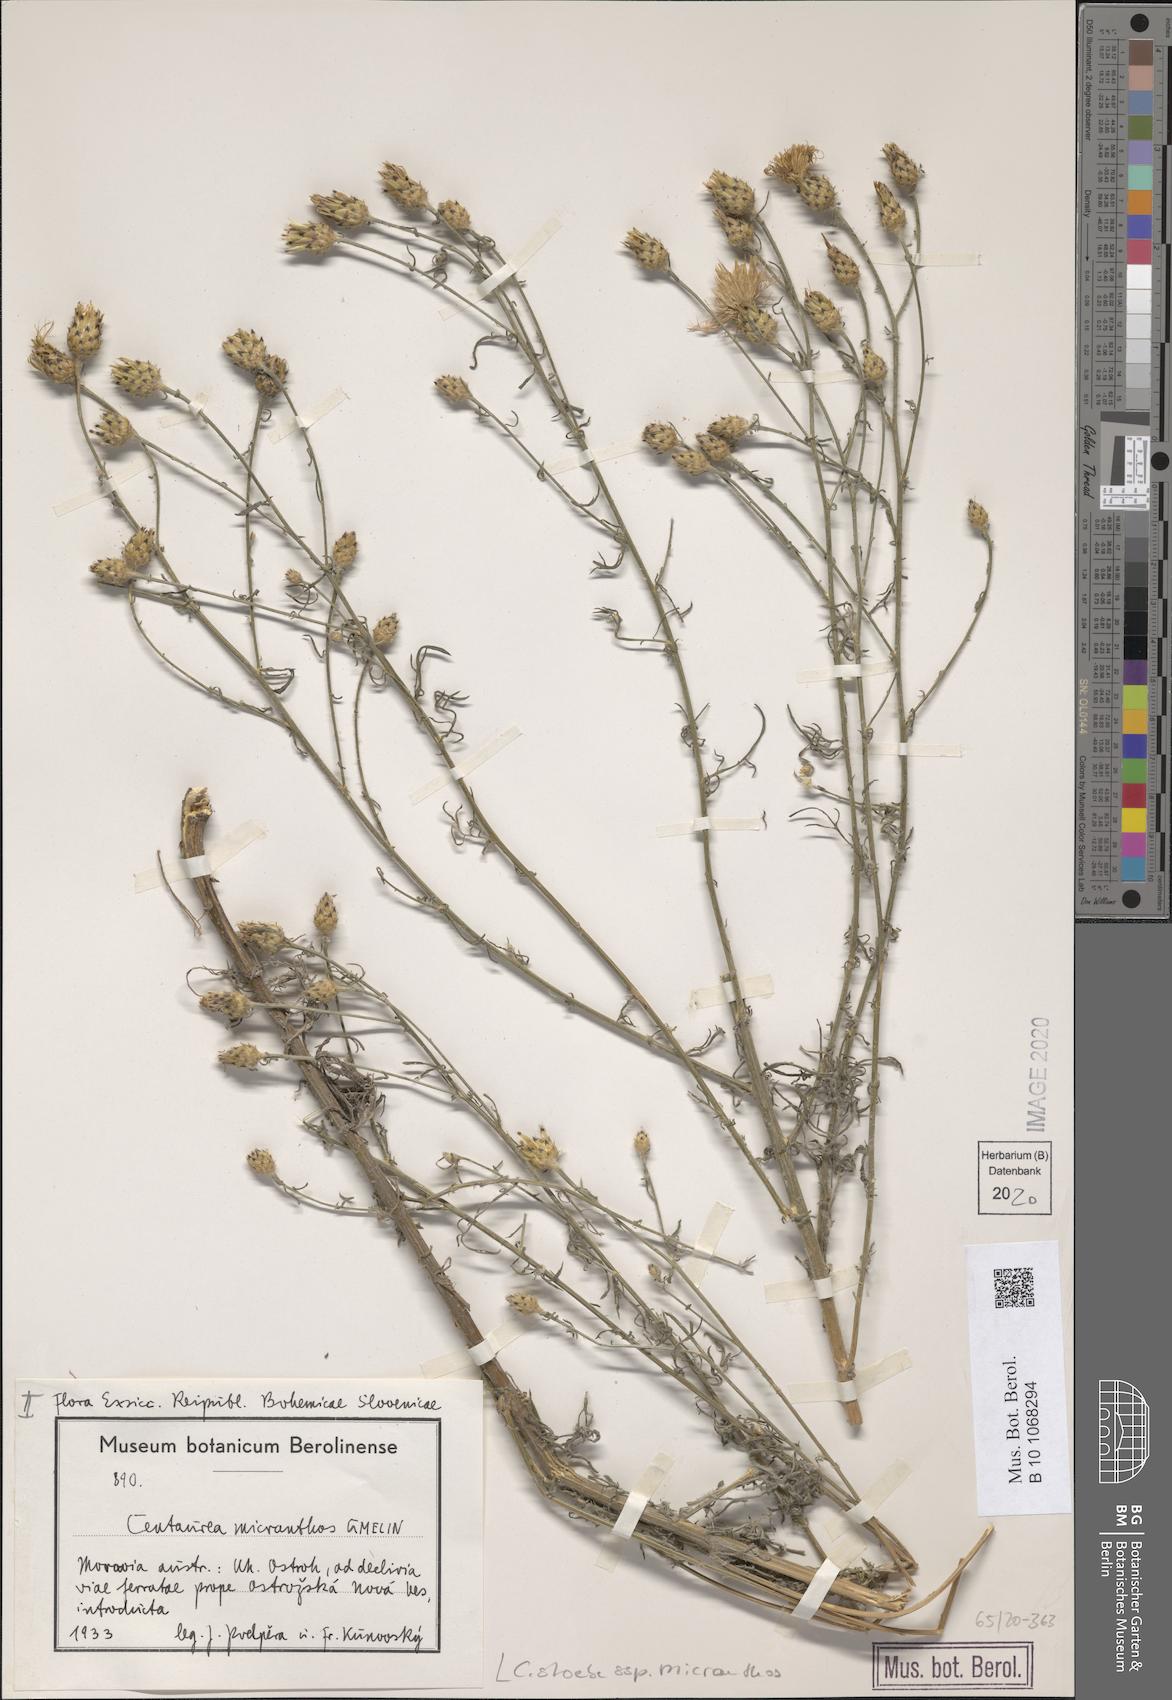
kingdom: Plantae
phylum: Tracheophyta
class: Magnoliopsida
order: Asterales
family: Asteraceae
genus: Centaurea
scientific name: Centaurea australis
